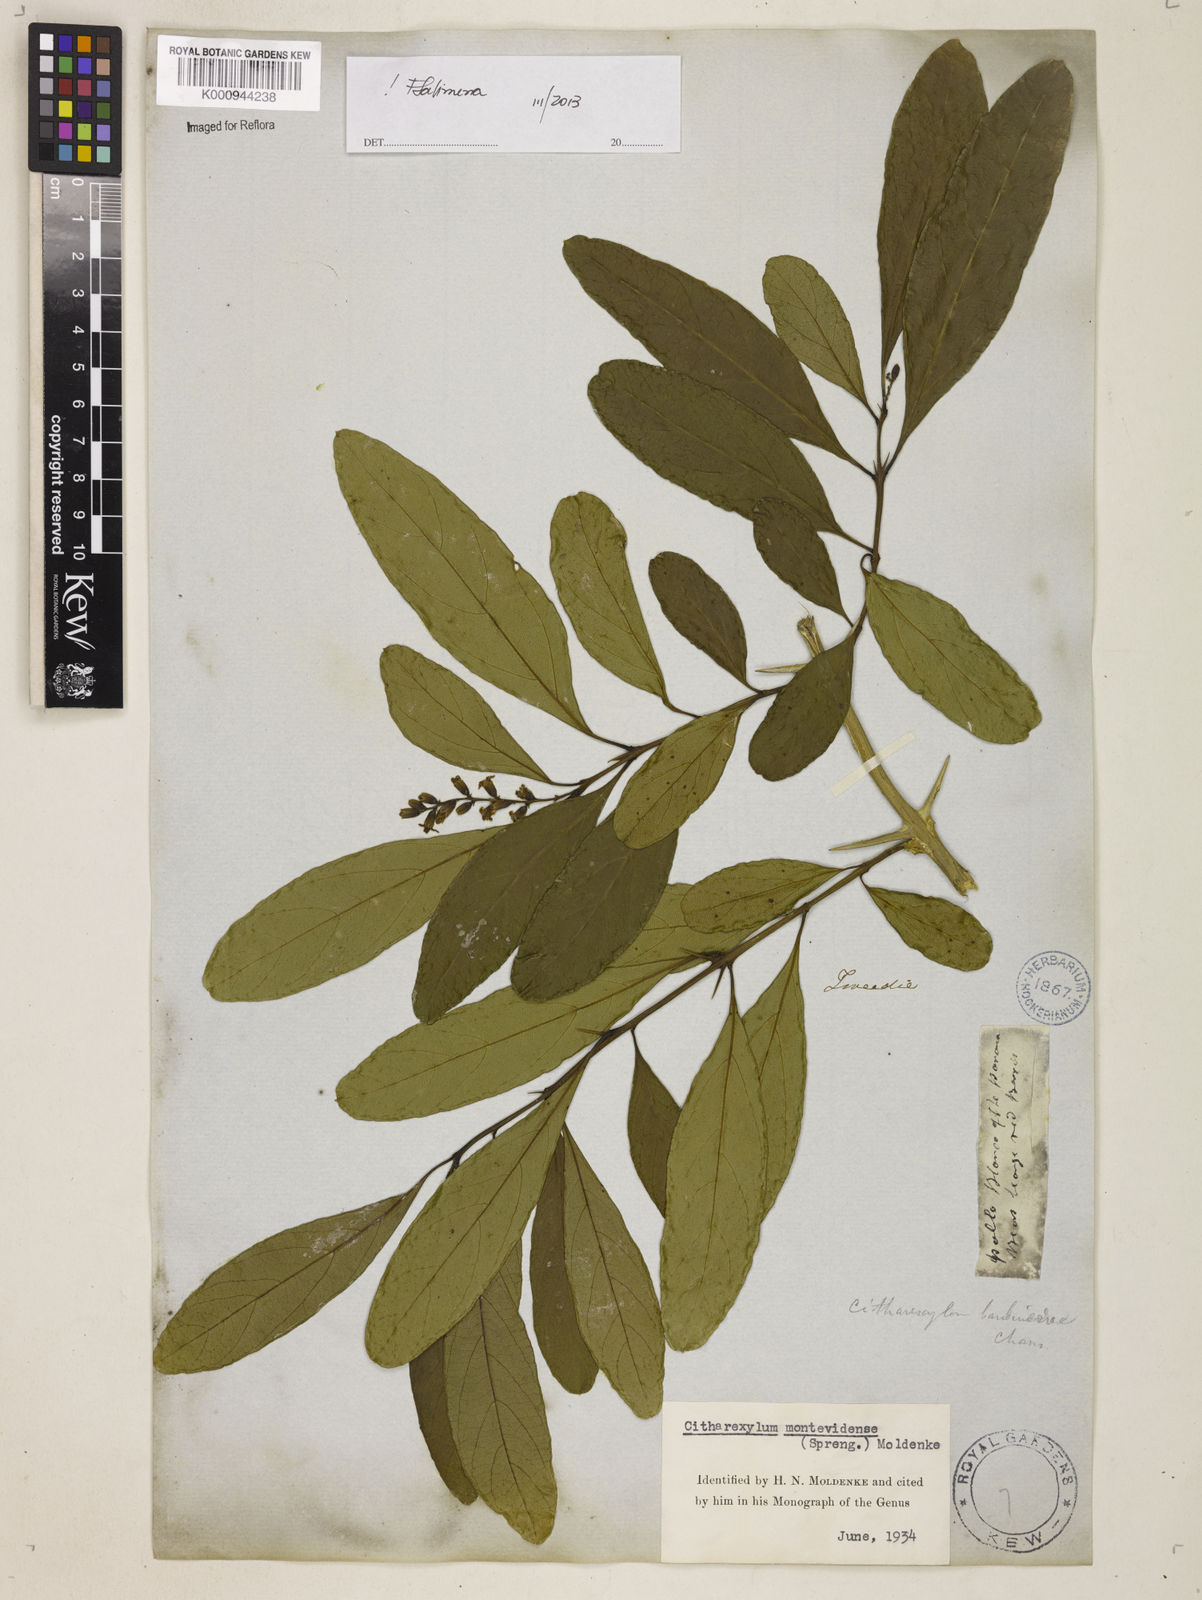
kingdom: Plantae
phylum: Tracheophyta
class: Magnoliopsida
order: Lamiales
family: Verbenaceae
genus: Citharexylum
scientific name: Citharexylum
